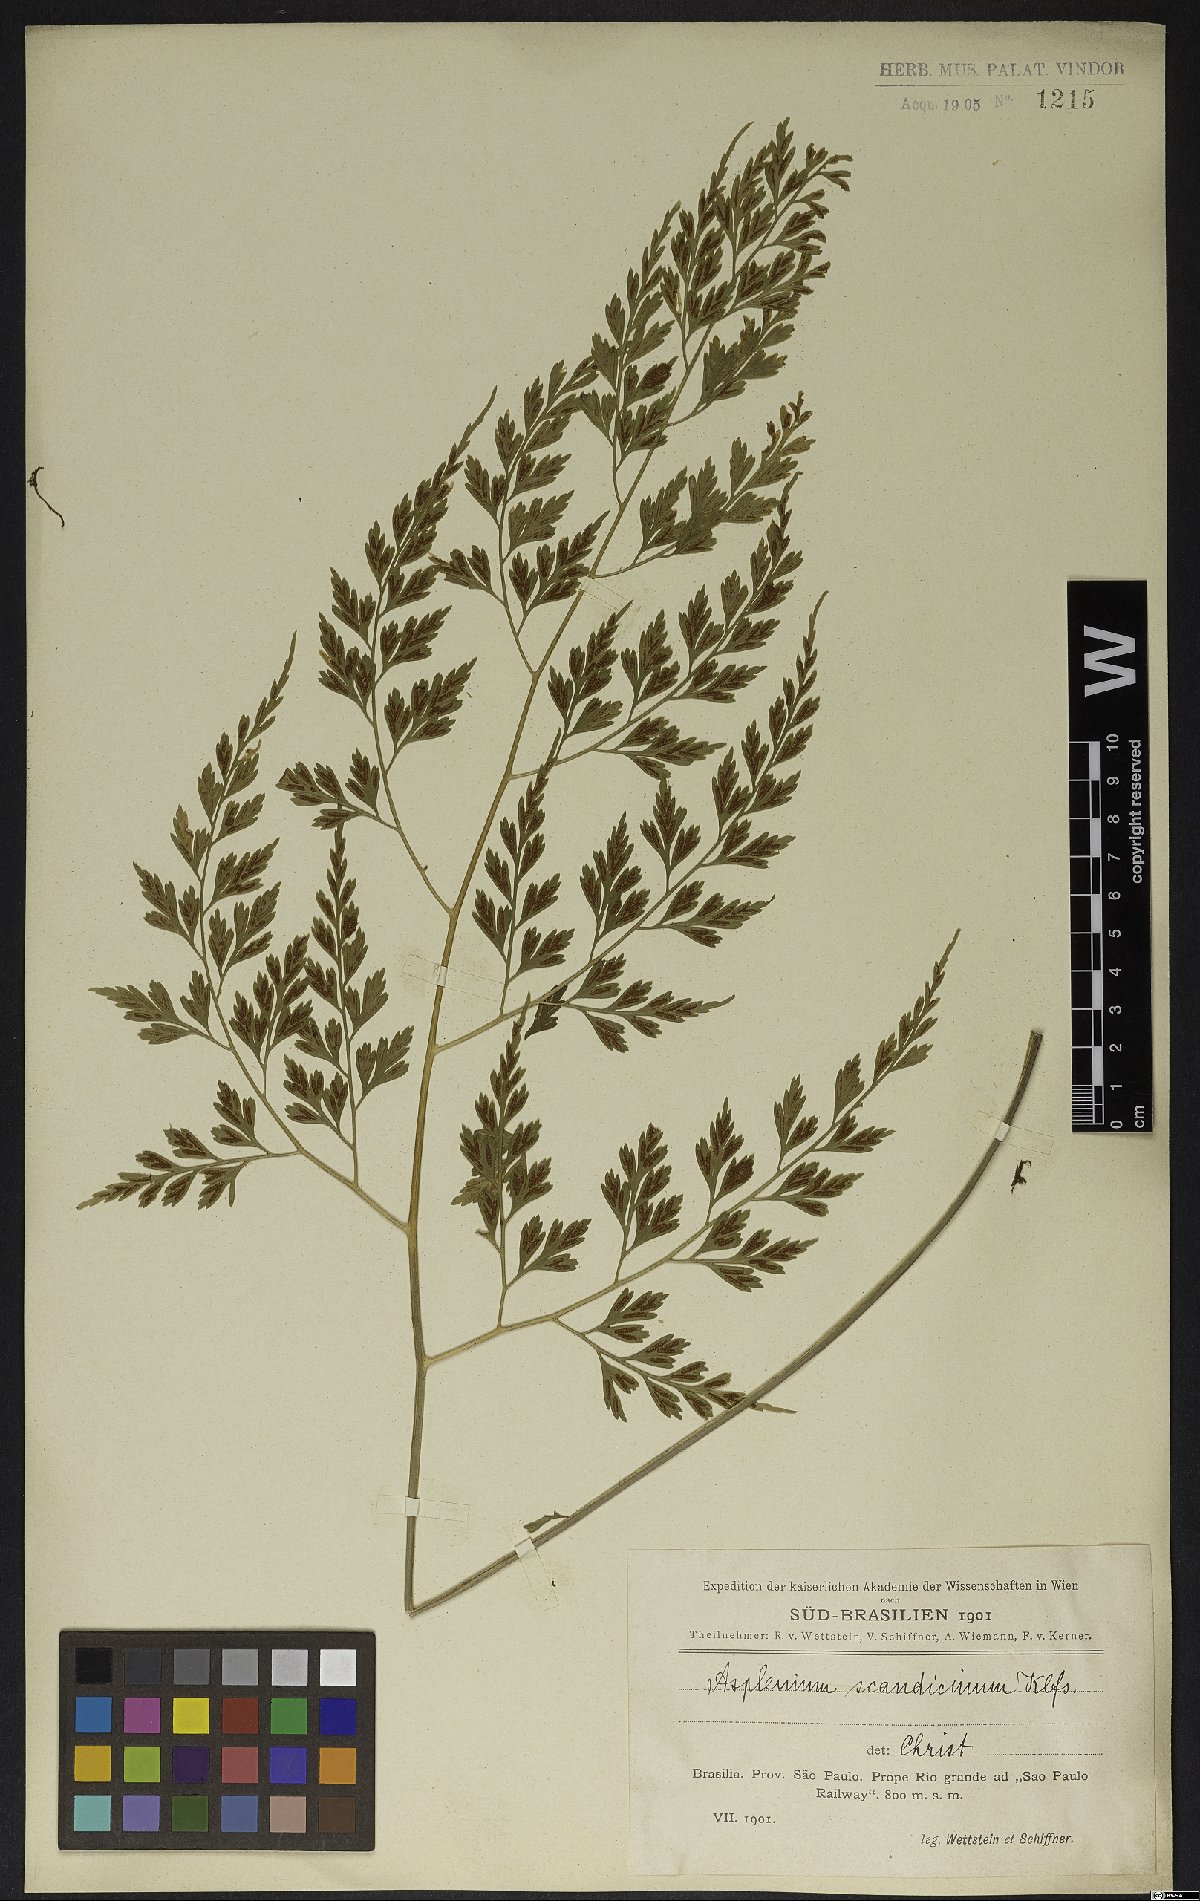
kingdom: Plantae
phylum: Tracheophyta
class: Polypodiopsida
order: Polypodiales
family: Aspleniaceae
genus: Asplenium
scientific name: Asplenium scandicinum
